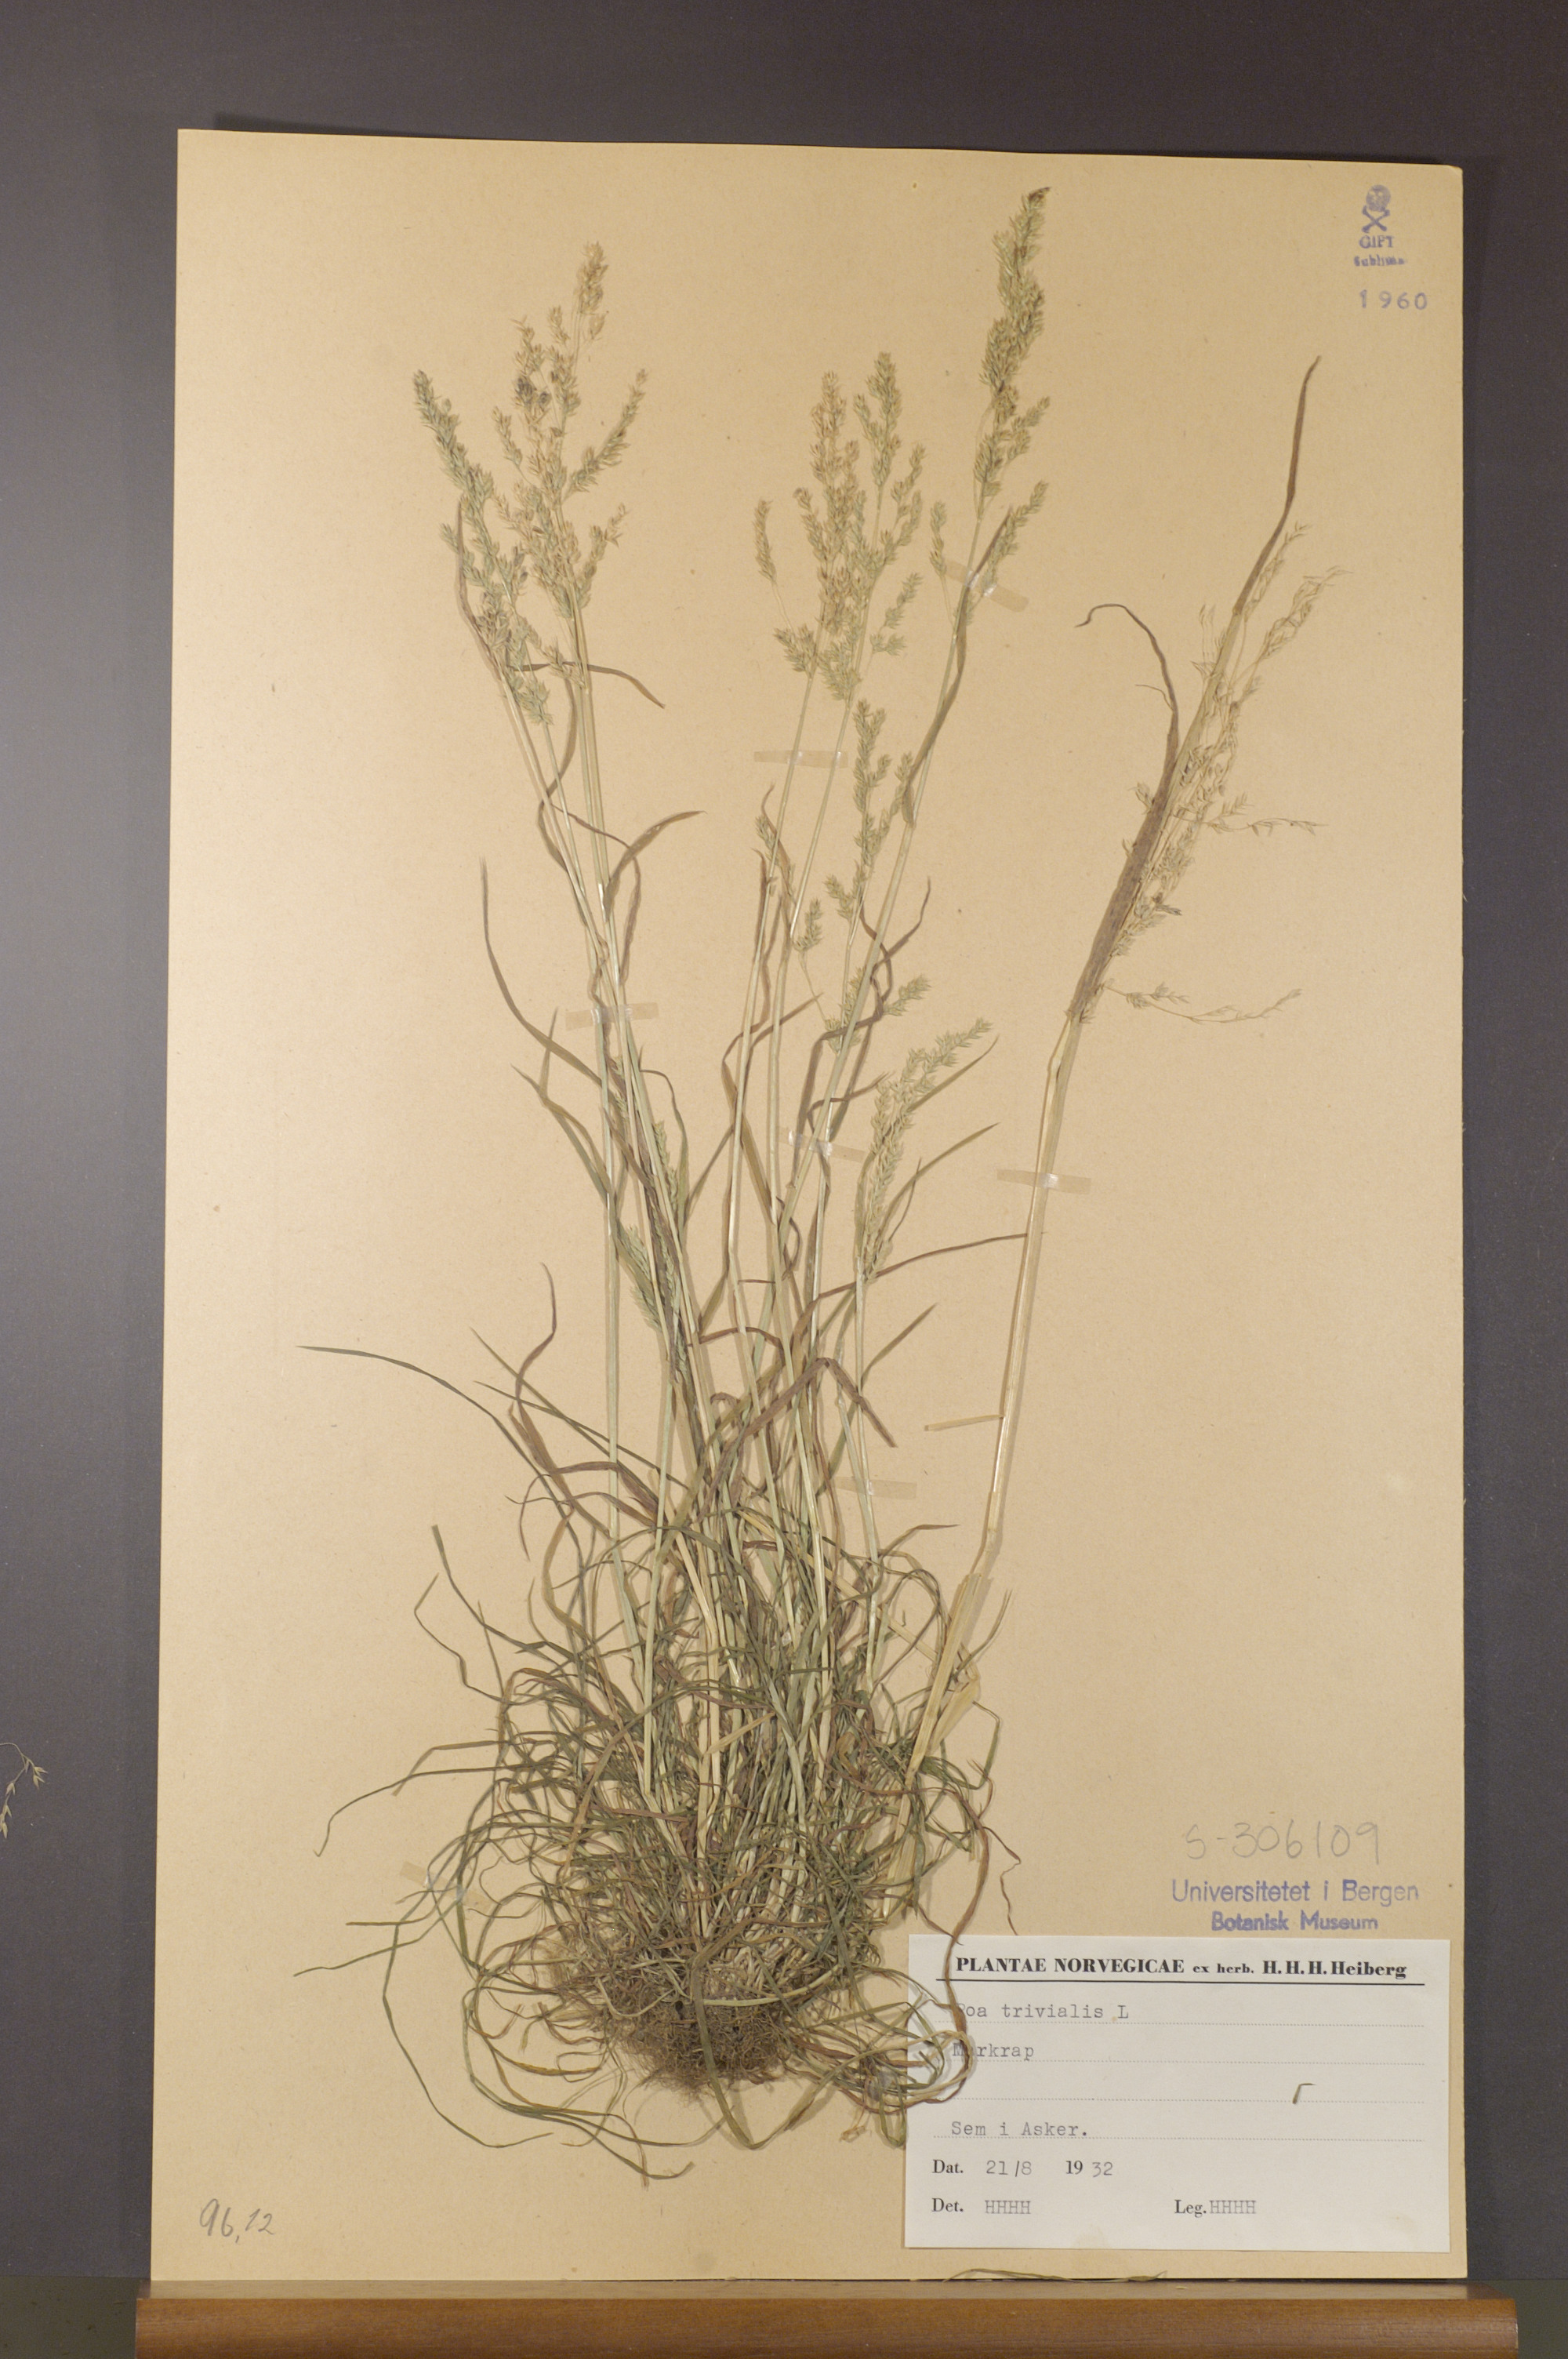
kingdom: Plantae
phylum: Tracheophyta
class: Liliopsida
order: Poales
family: Poaceae
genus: Poa
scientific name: Poa trivialis
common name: Rough bluegrass
